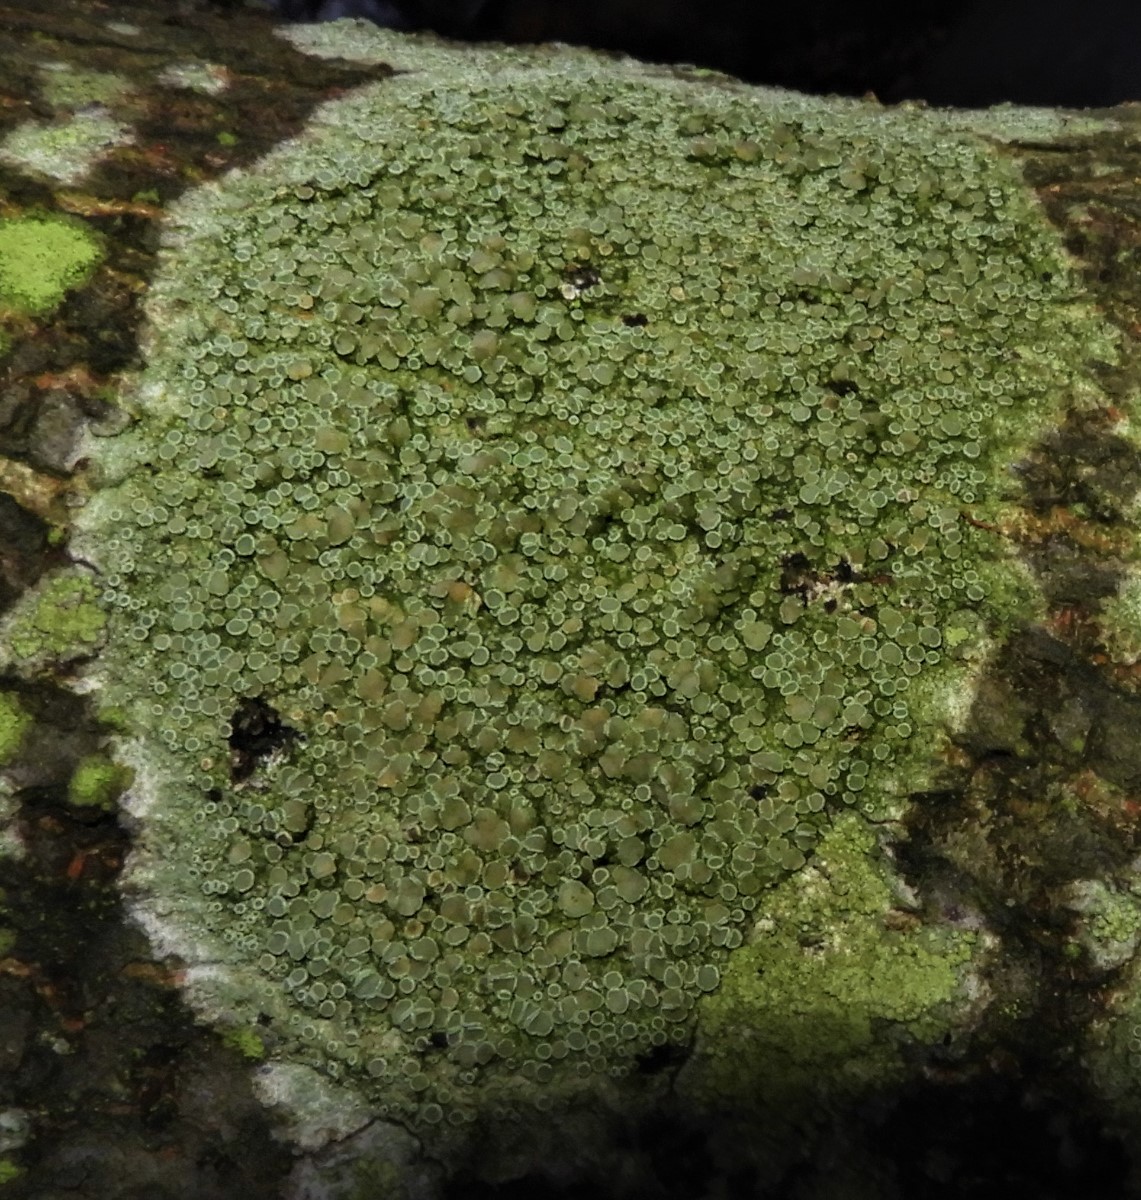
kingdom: Fungi
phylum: Ascomycota
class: Lecanoromycetes
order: Lecanorales
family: Lecanoraceae
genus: Lecanora
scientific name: Lecanora chlarotera
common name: brun kantskivelav
